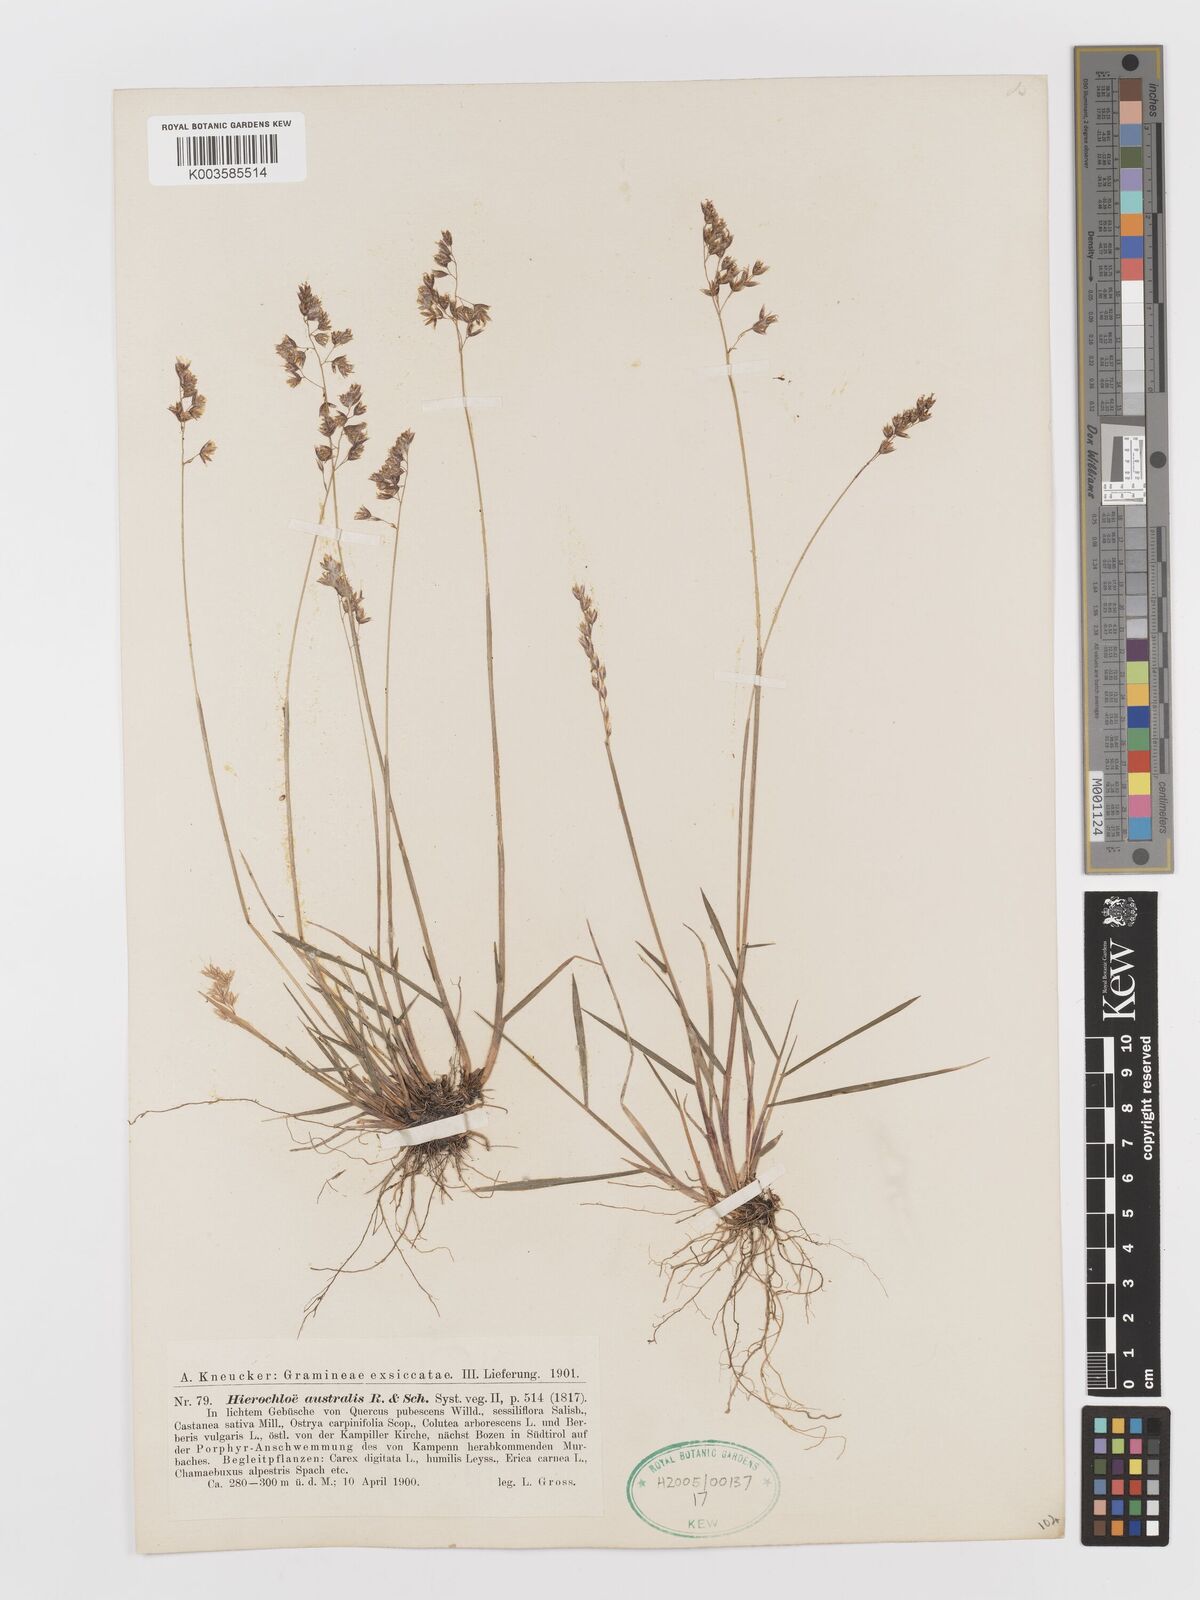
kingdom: Plantae
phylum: Tracheophyta
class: Liliopsida
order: Poales
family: Poaceae
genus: Anthoxanthum
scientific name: Anthoxanthum australe
